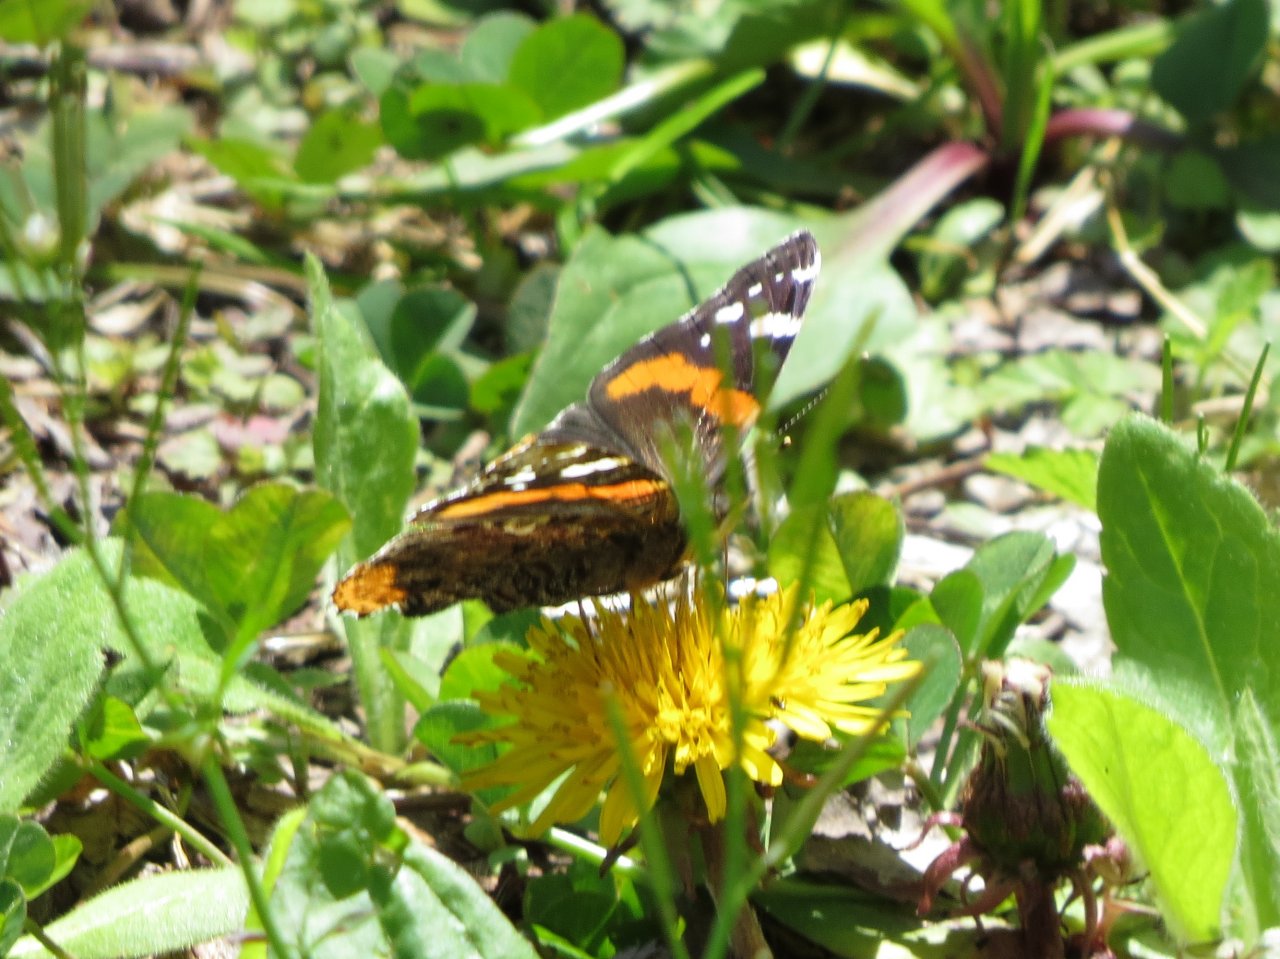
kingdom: Animalia
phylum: Arthropoda
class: Insecta
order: Lepidoptera
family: Nymphalidae
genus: Vanessa
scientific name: Vanessa atalanta
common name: Red Admiral
